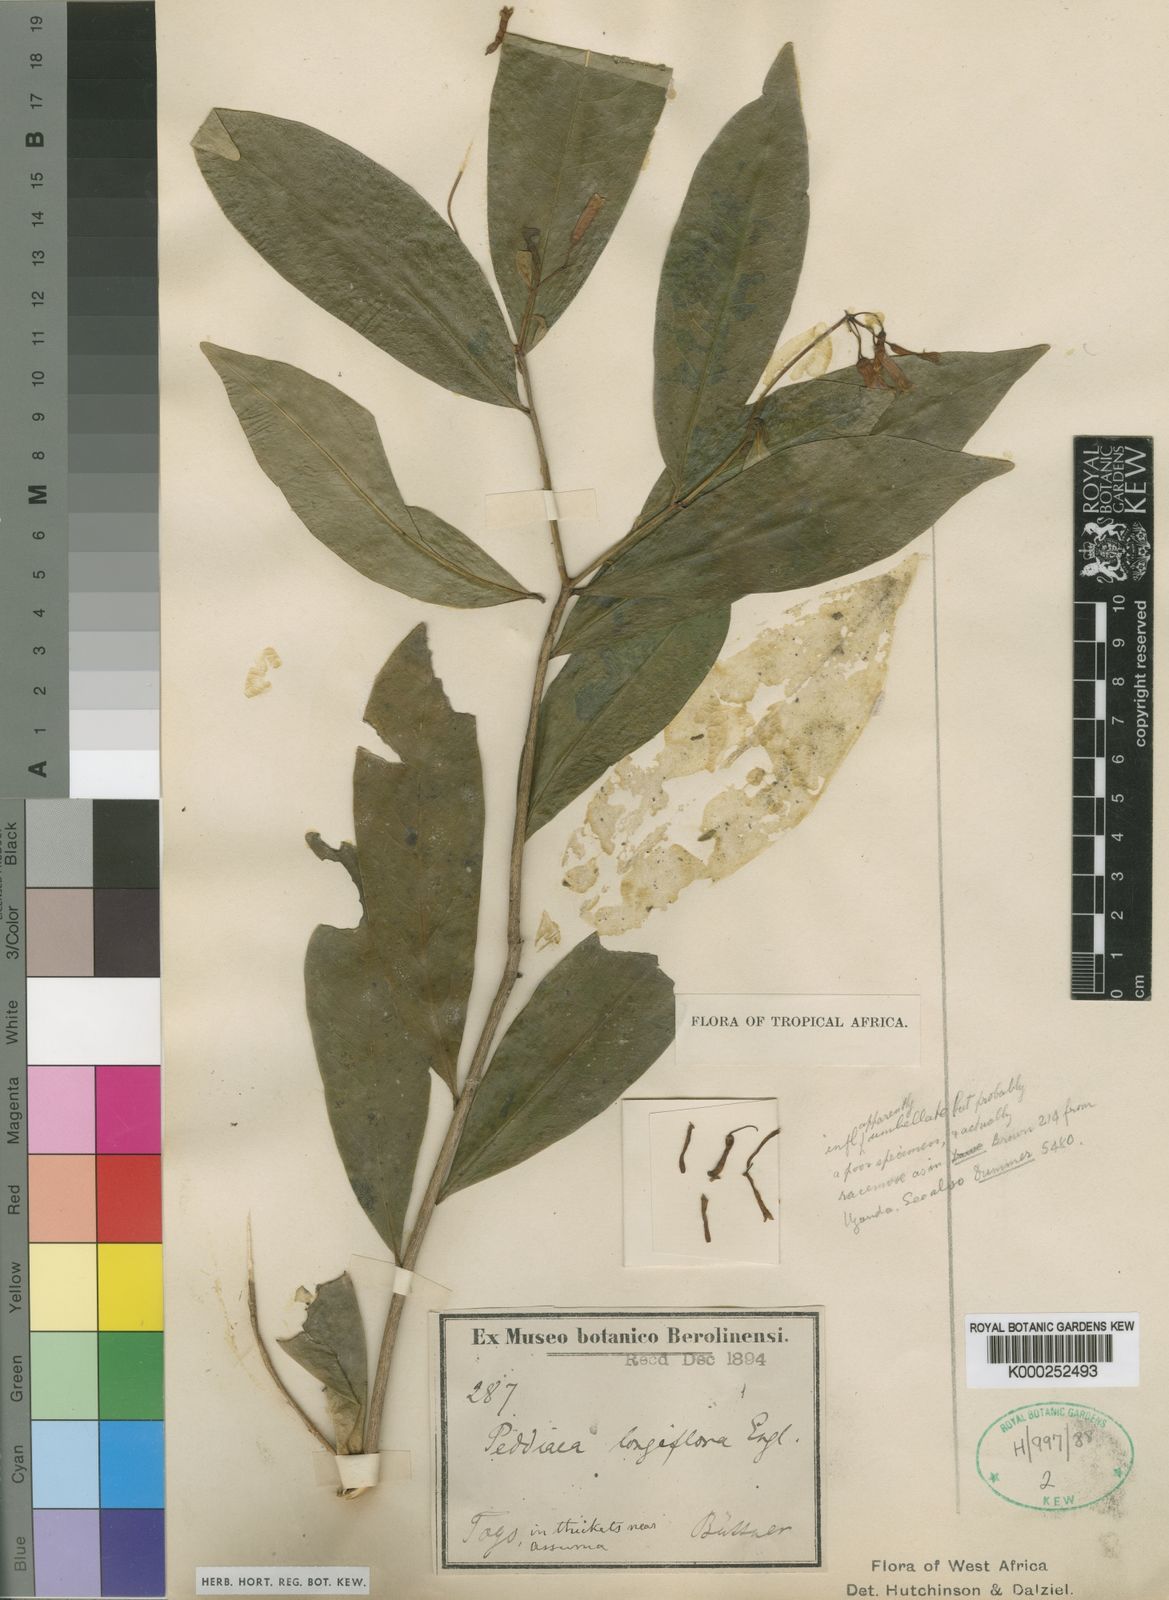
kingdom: Plantae
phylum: Tracheophyta
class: Magnoliopsida
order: Malvales
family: Thymelaeaceae
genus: Peddiea
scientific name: Peddiea fischeri
